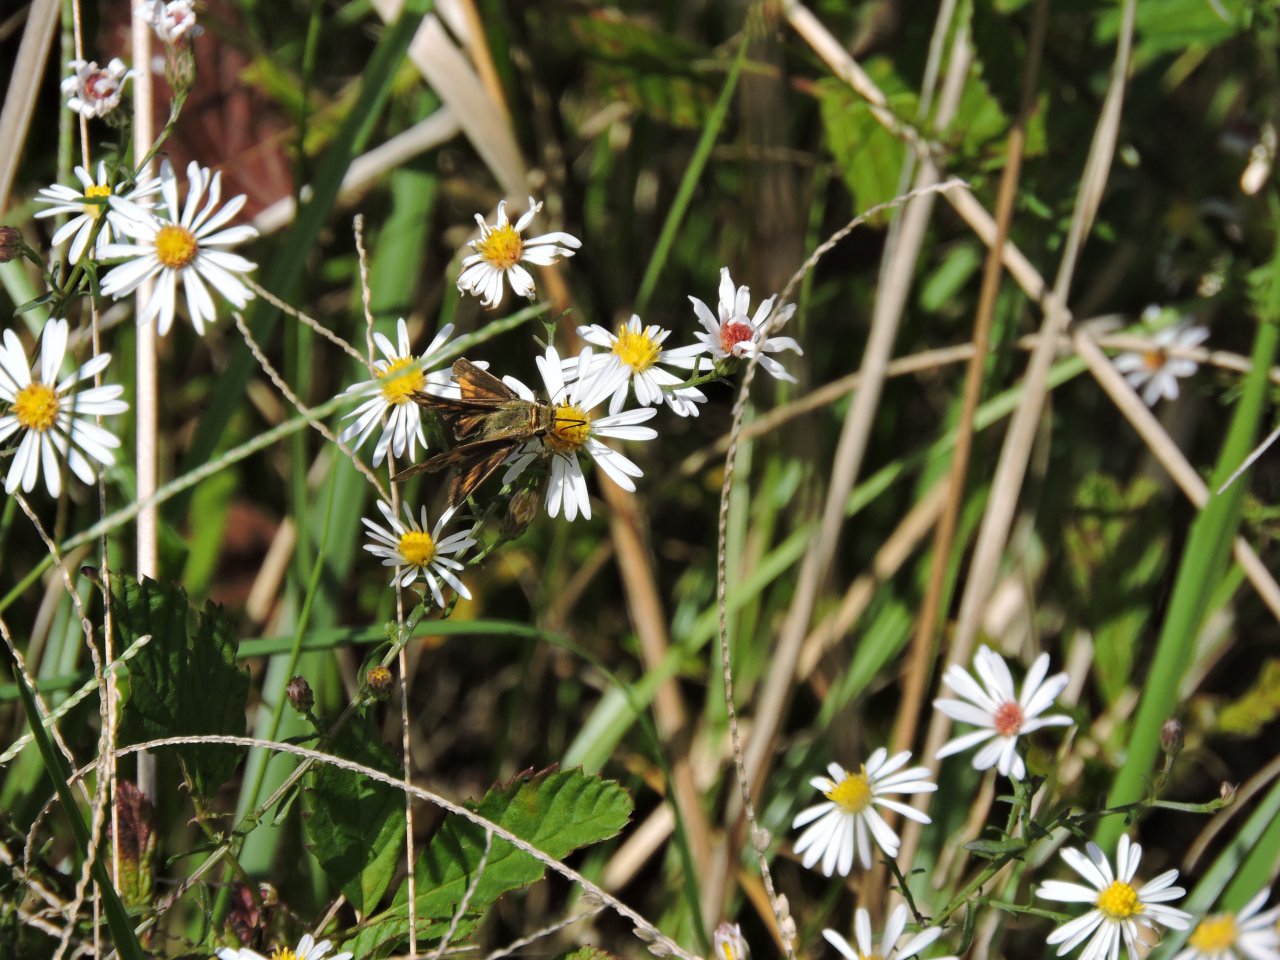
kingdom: Animalia
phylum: Arthropoda
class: Insecta
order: Lepidoptera
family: Hesperiidae
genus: Polites
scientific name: Polites vibex
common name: Whirlabout
